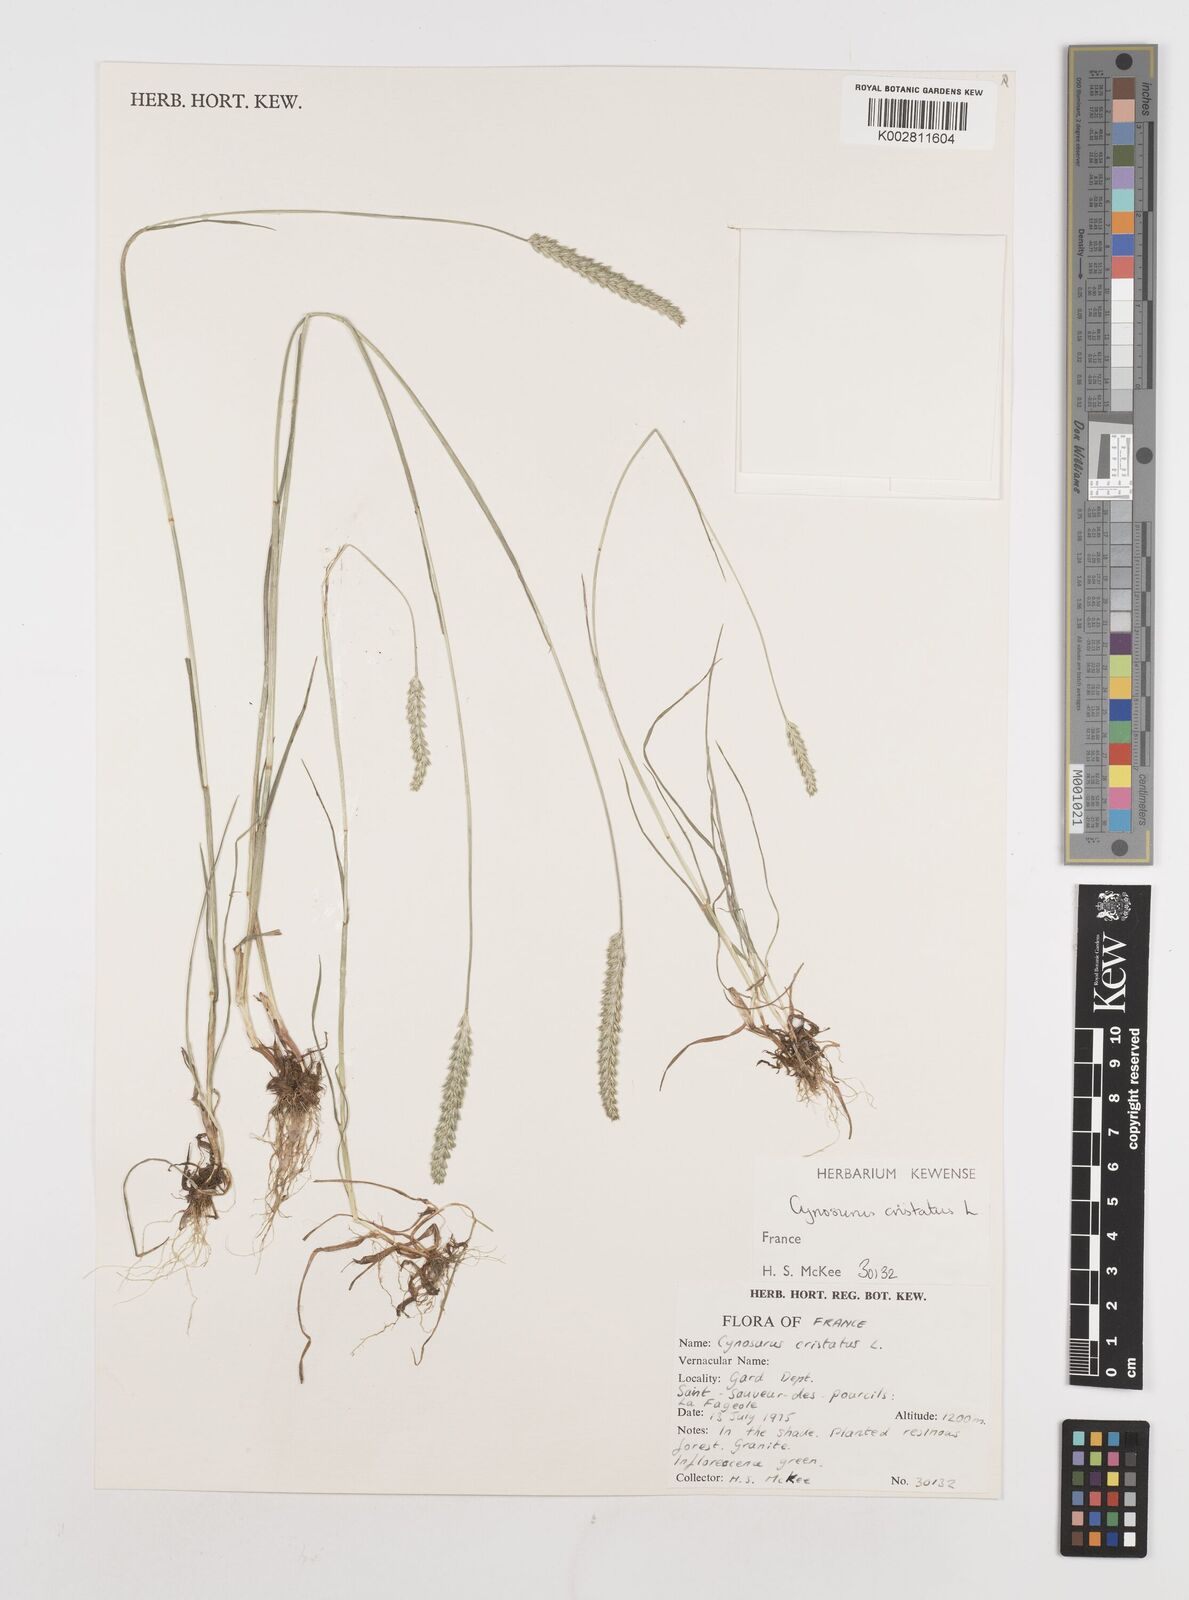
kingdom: Plantae
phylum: Tracheophyta
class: Liliopsida
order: Poales
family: Poaceae
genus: Cynosurus
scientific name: Cynosurus cristatus
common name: Crested dog's-tail
